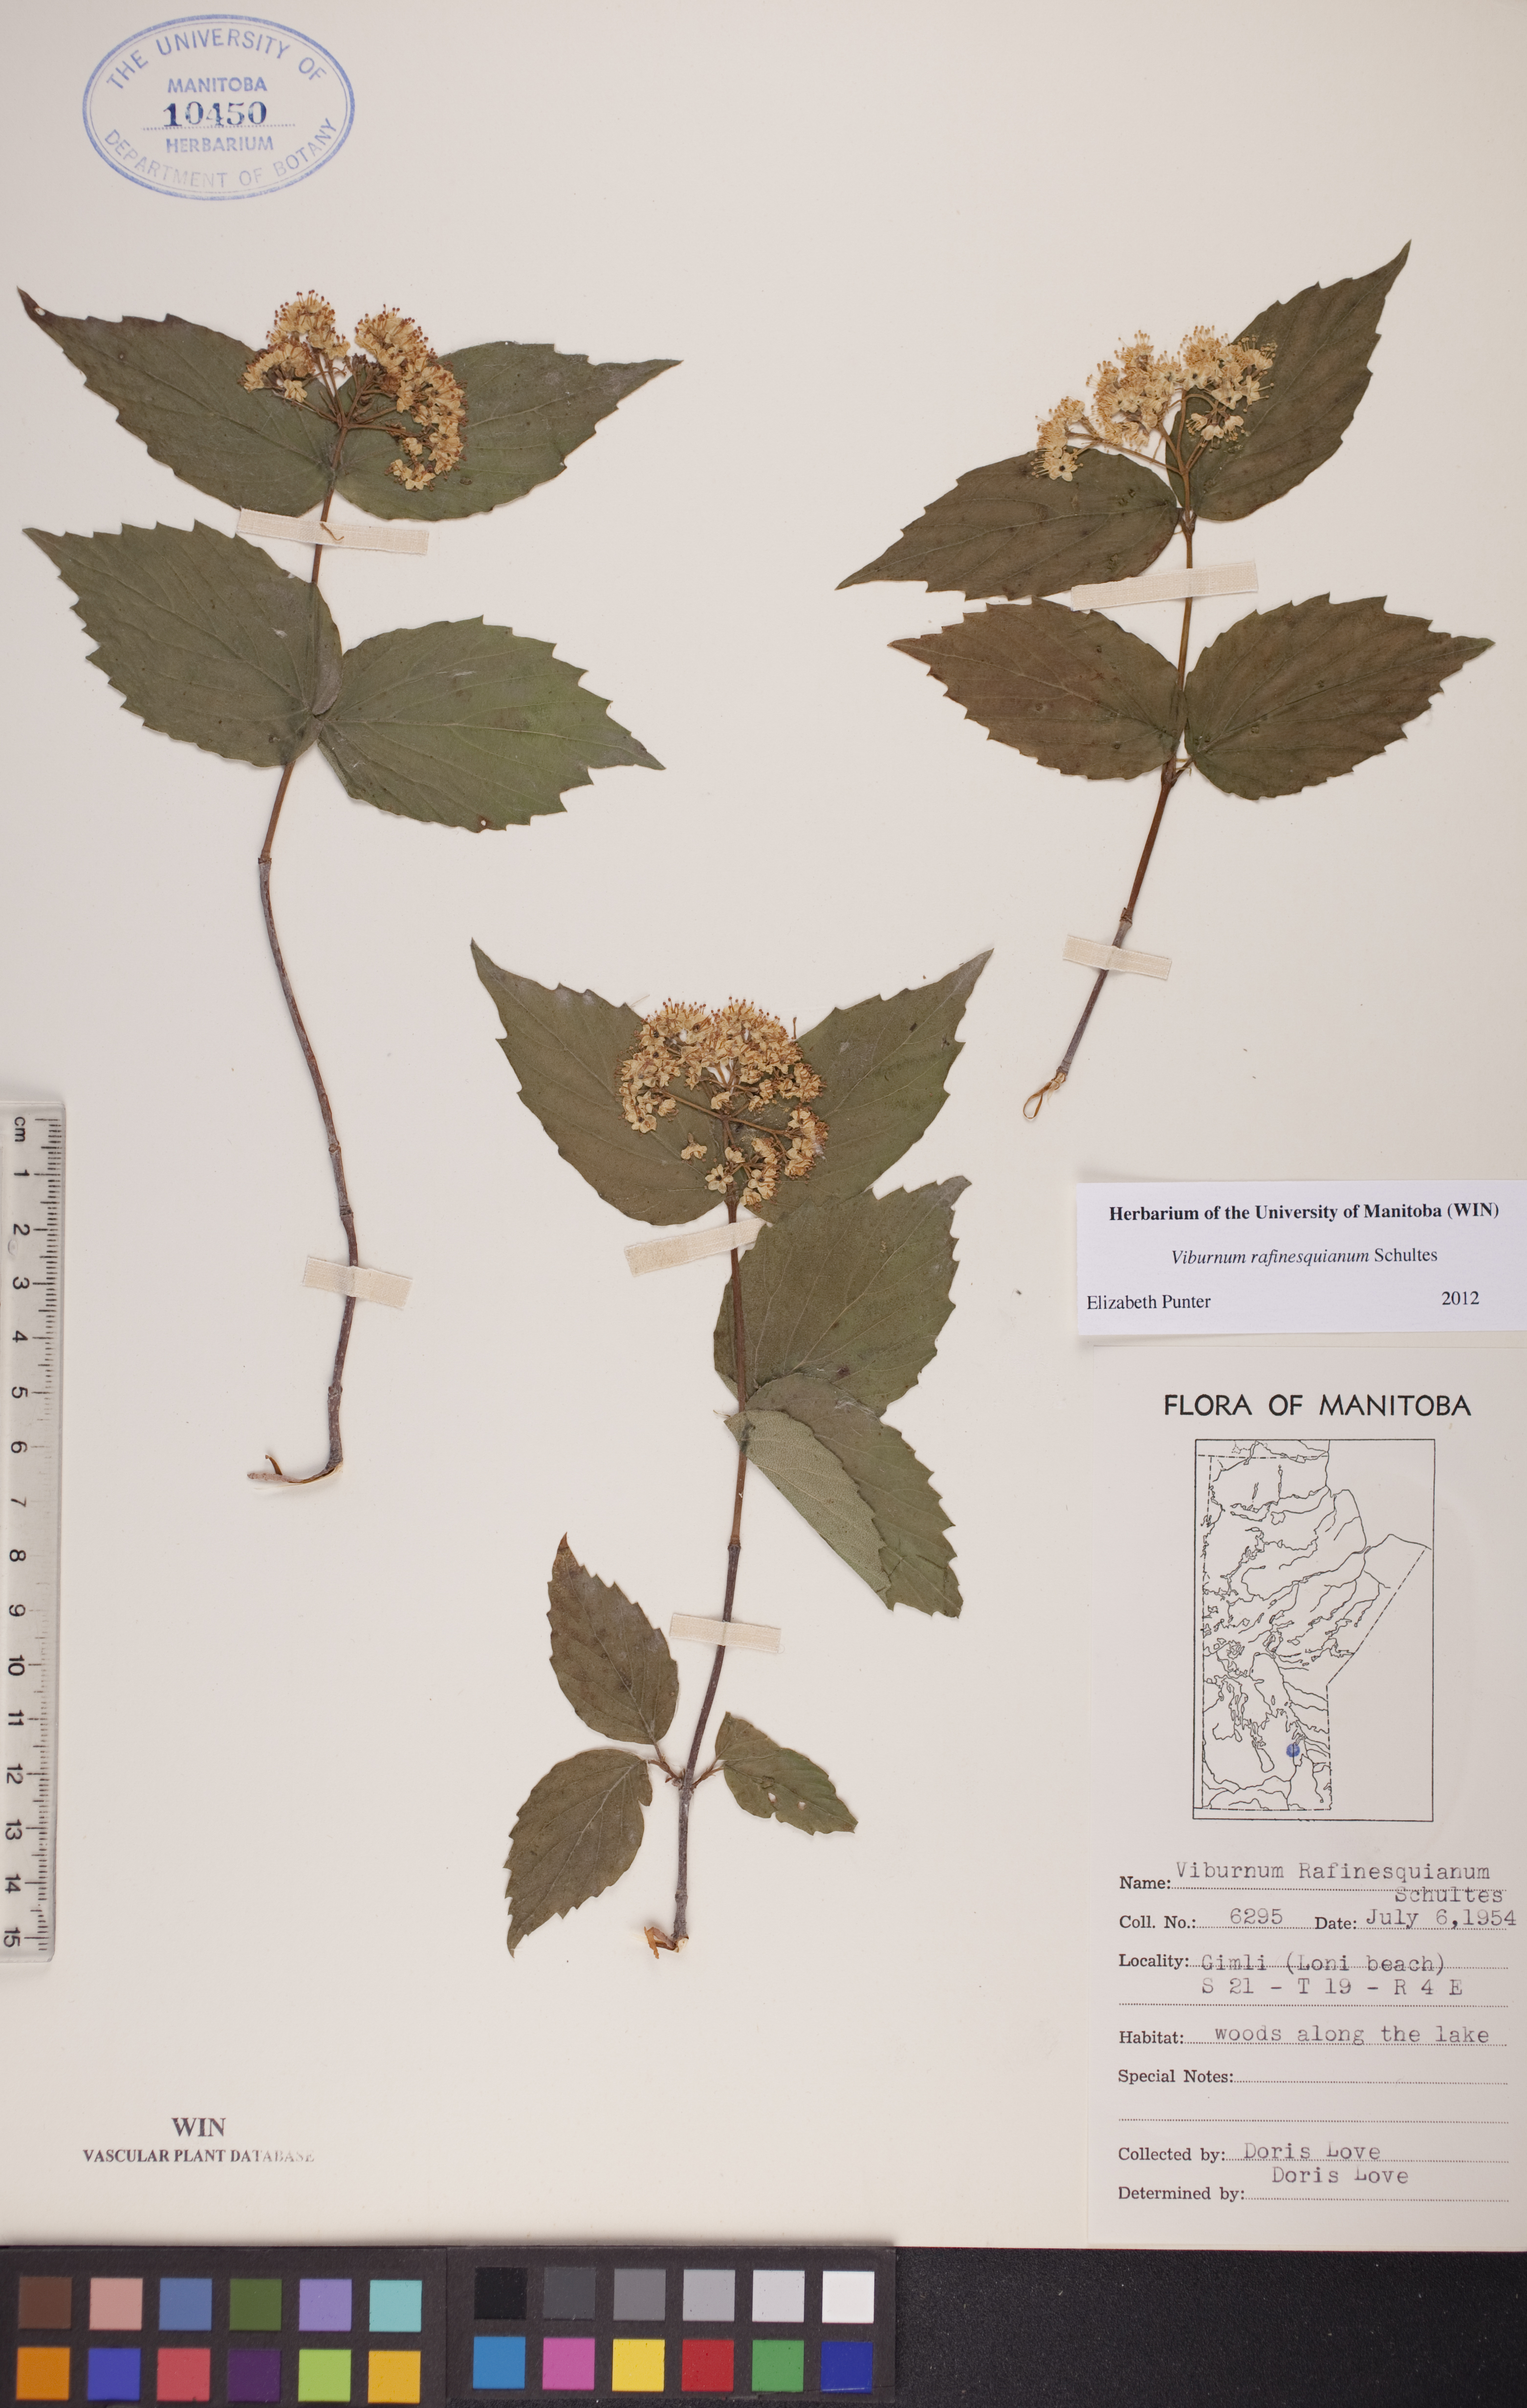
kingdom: Plantae
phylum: Tracheophyta
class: Magnoliopsida
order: Dipsacales
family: Viburnaceae
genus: Viburnum
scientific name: Viburnum rafinesquianum
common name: Downy arrow-wood
